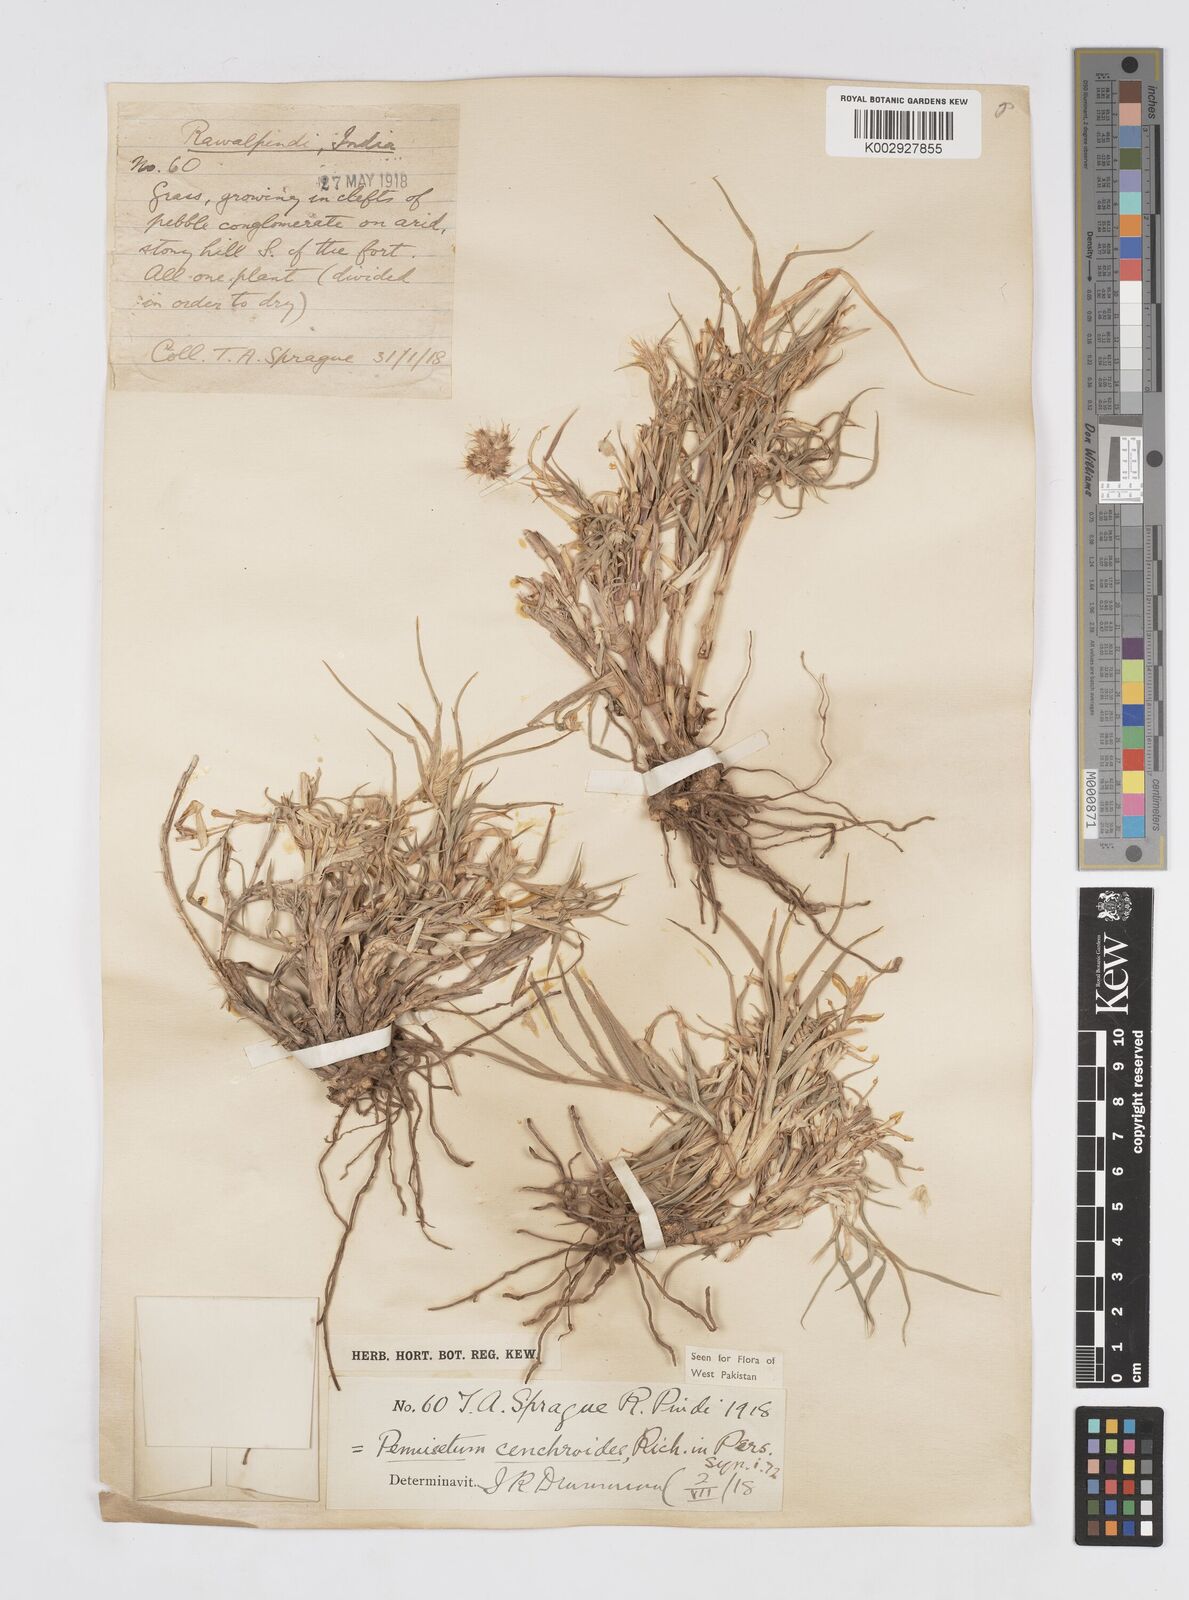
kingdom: Plantae
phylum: Tracheophyta
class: Liliopsida
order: Poales
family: Poaceae
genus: Cenchrus
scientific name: Cenchrus ciliaris
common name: Buffelgrass
